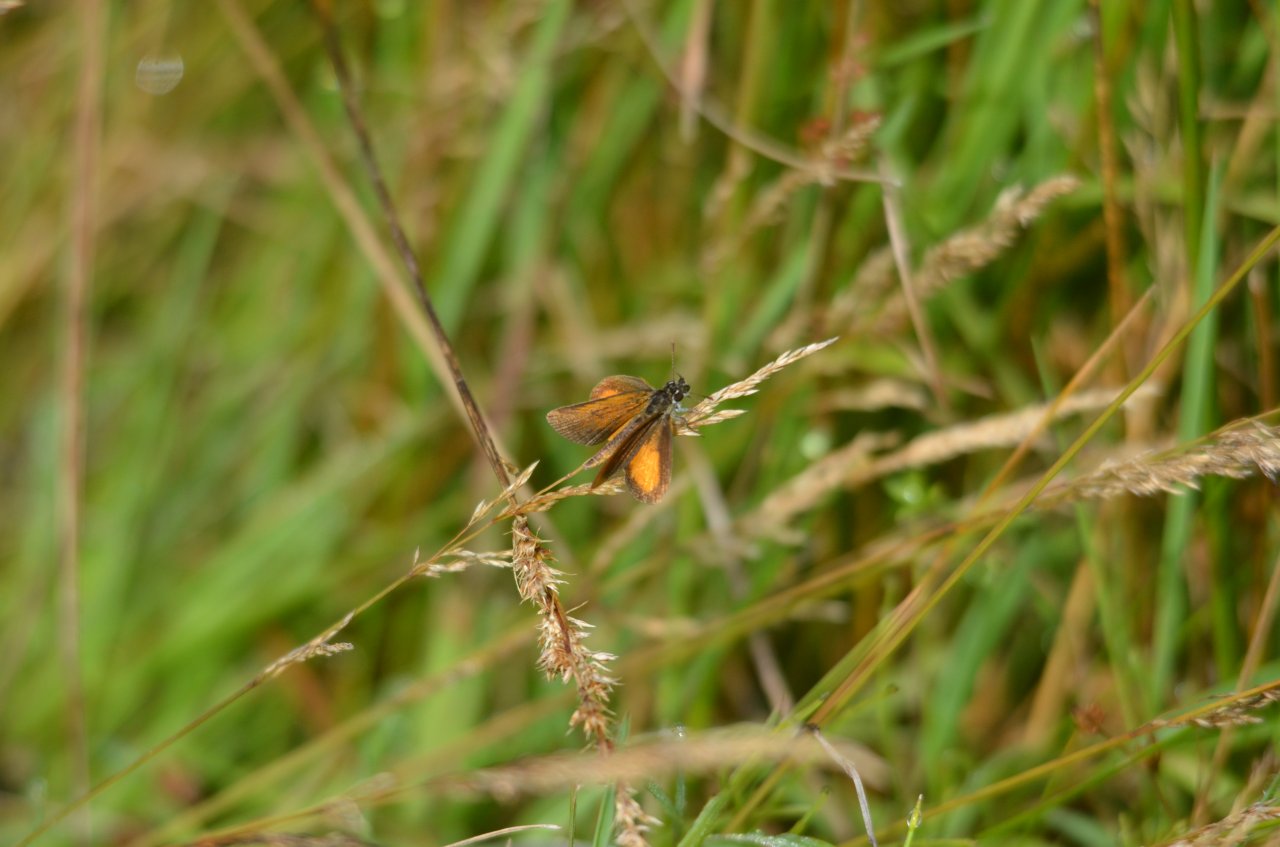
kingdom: Animalia
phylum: Arthropoda
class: Insecta
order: Lepidoptera
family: Hesperiidae
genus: Ancyloxypha
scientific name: Ancyloxypha numitor
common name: Least Skipper
